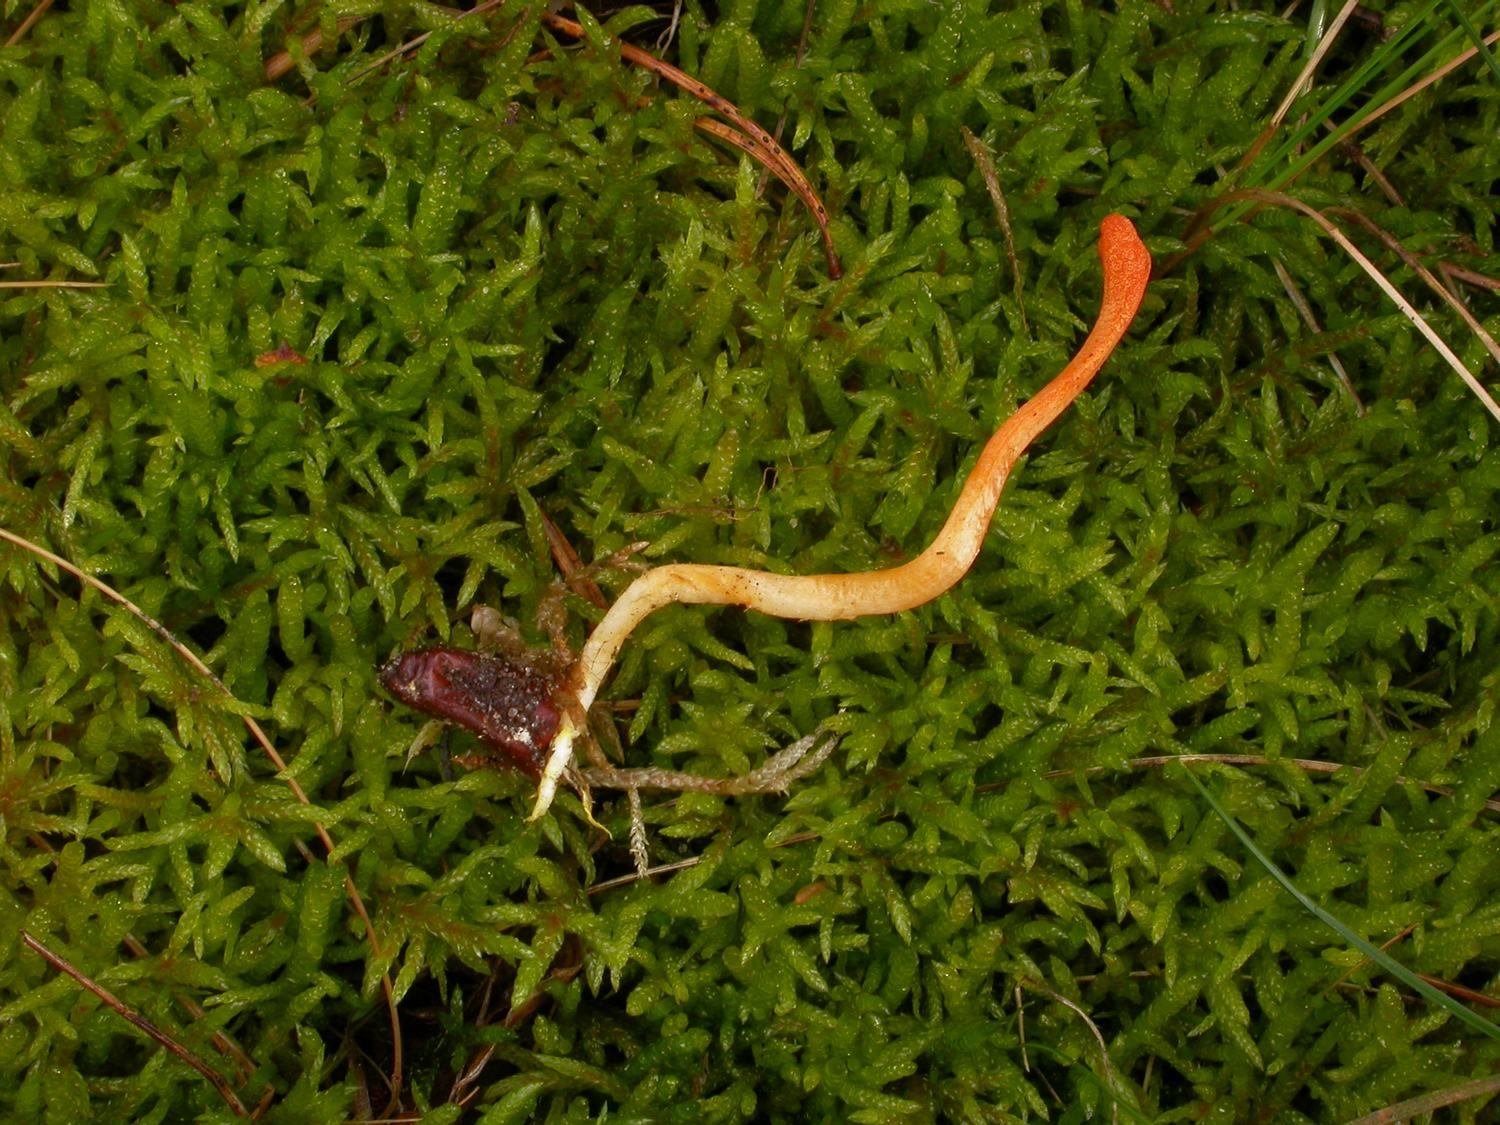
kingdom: Fungi
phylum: Ascomycota
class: Sordariomycetes
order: Hypocreales
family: Cordycipitaceae
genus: Cordyceps
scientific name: Cordyceps militaris
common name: puppe-snyltekølle
